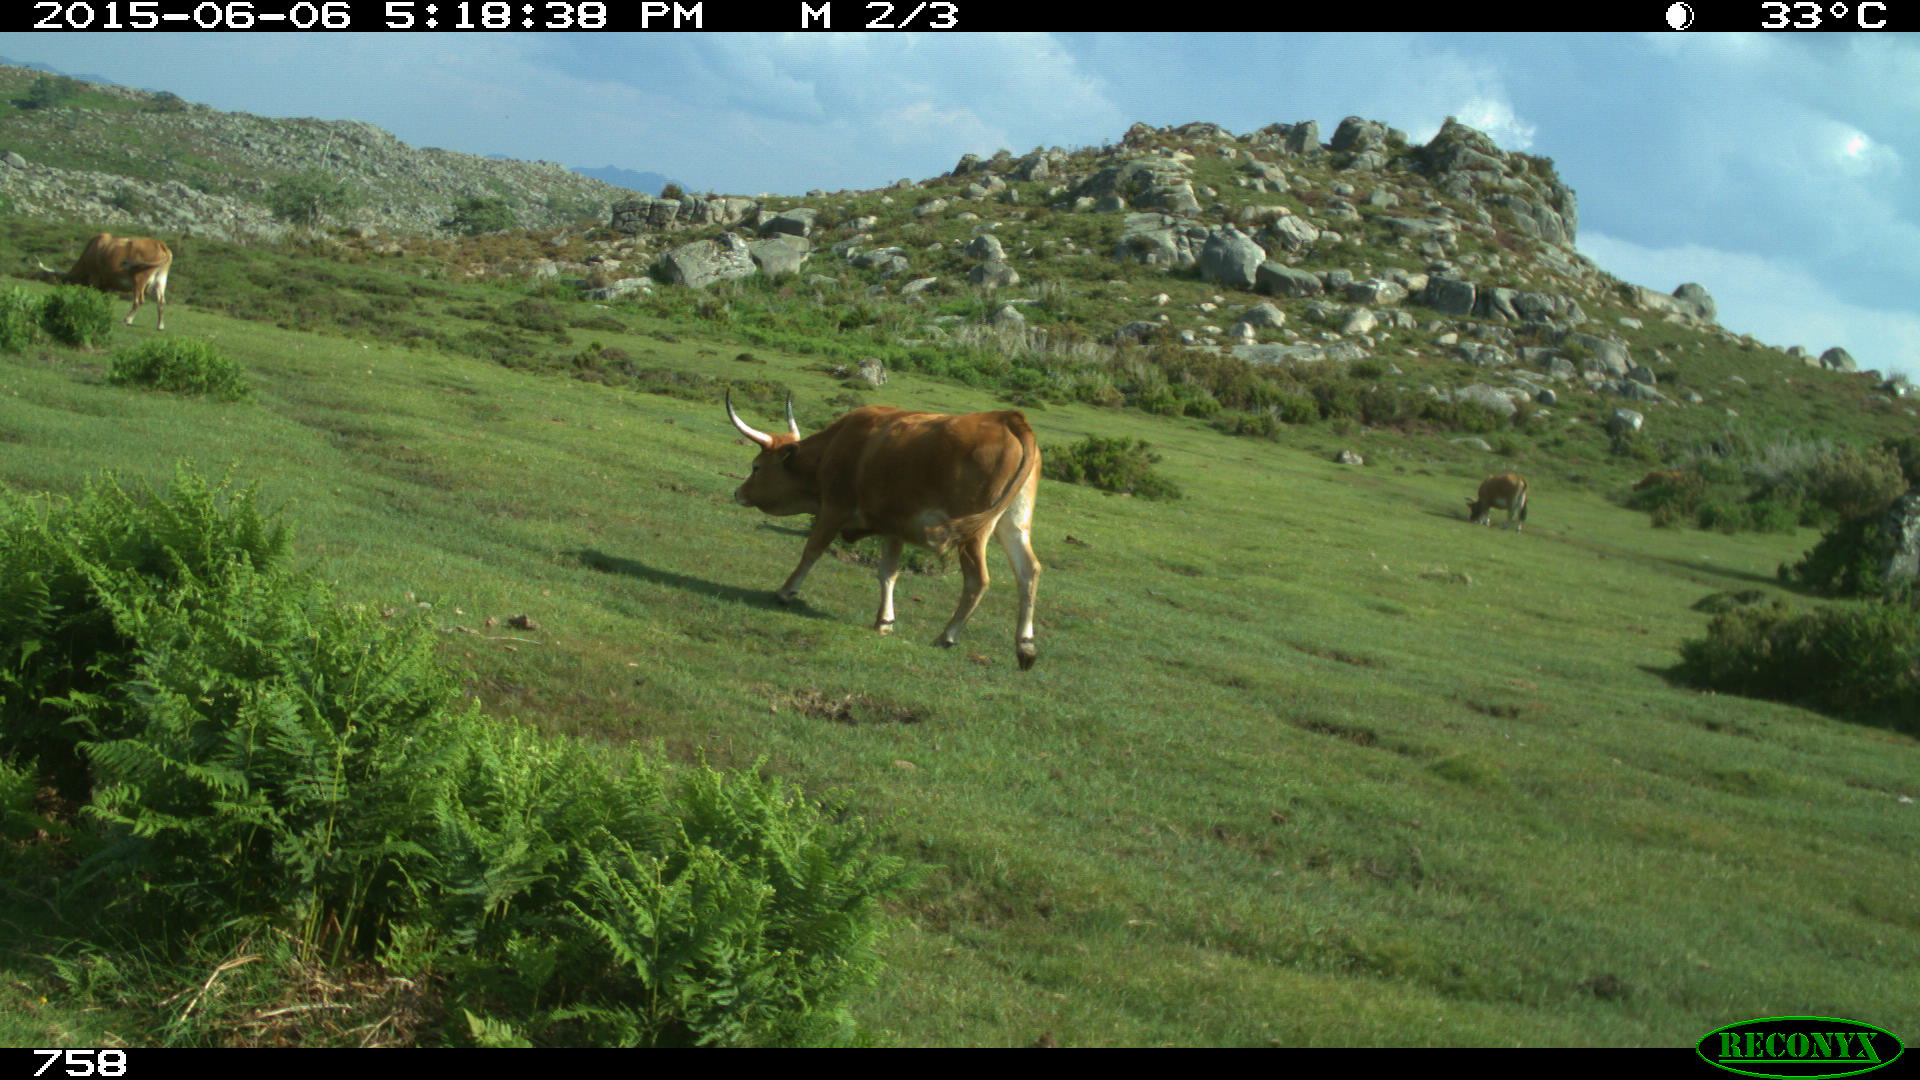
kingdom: Animalia
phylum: Chordata
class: Mammalia
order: Artiodactyla
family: Bovidae
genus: Bos
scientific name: Bos taurus
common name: Domesticated cattle
